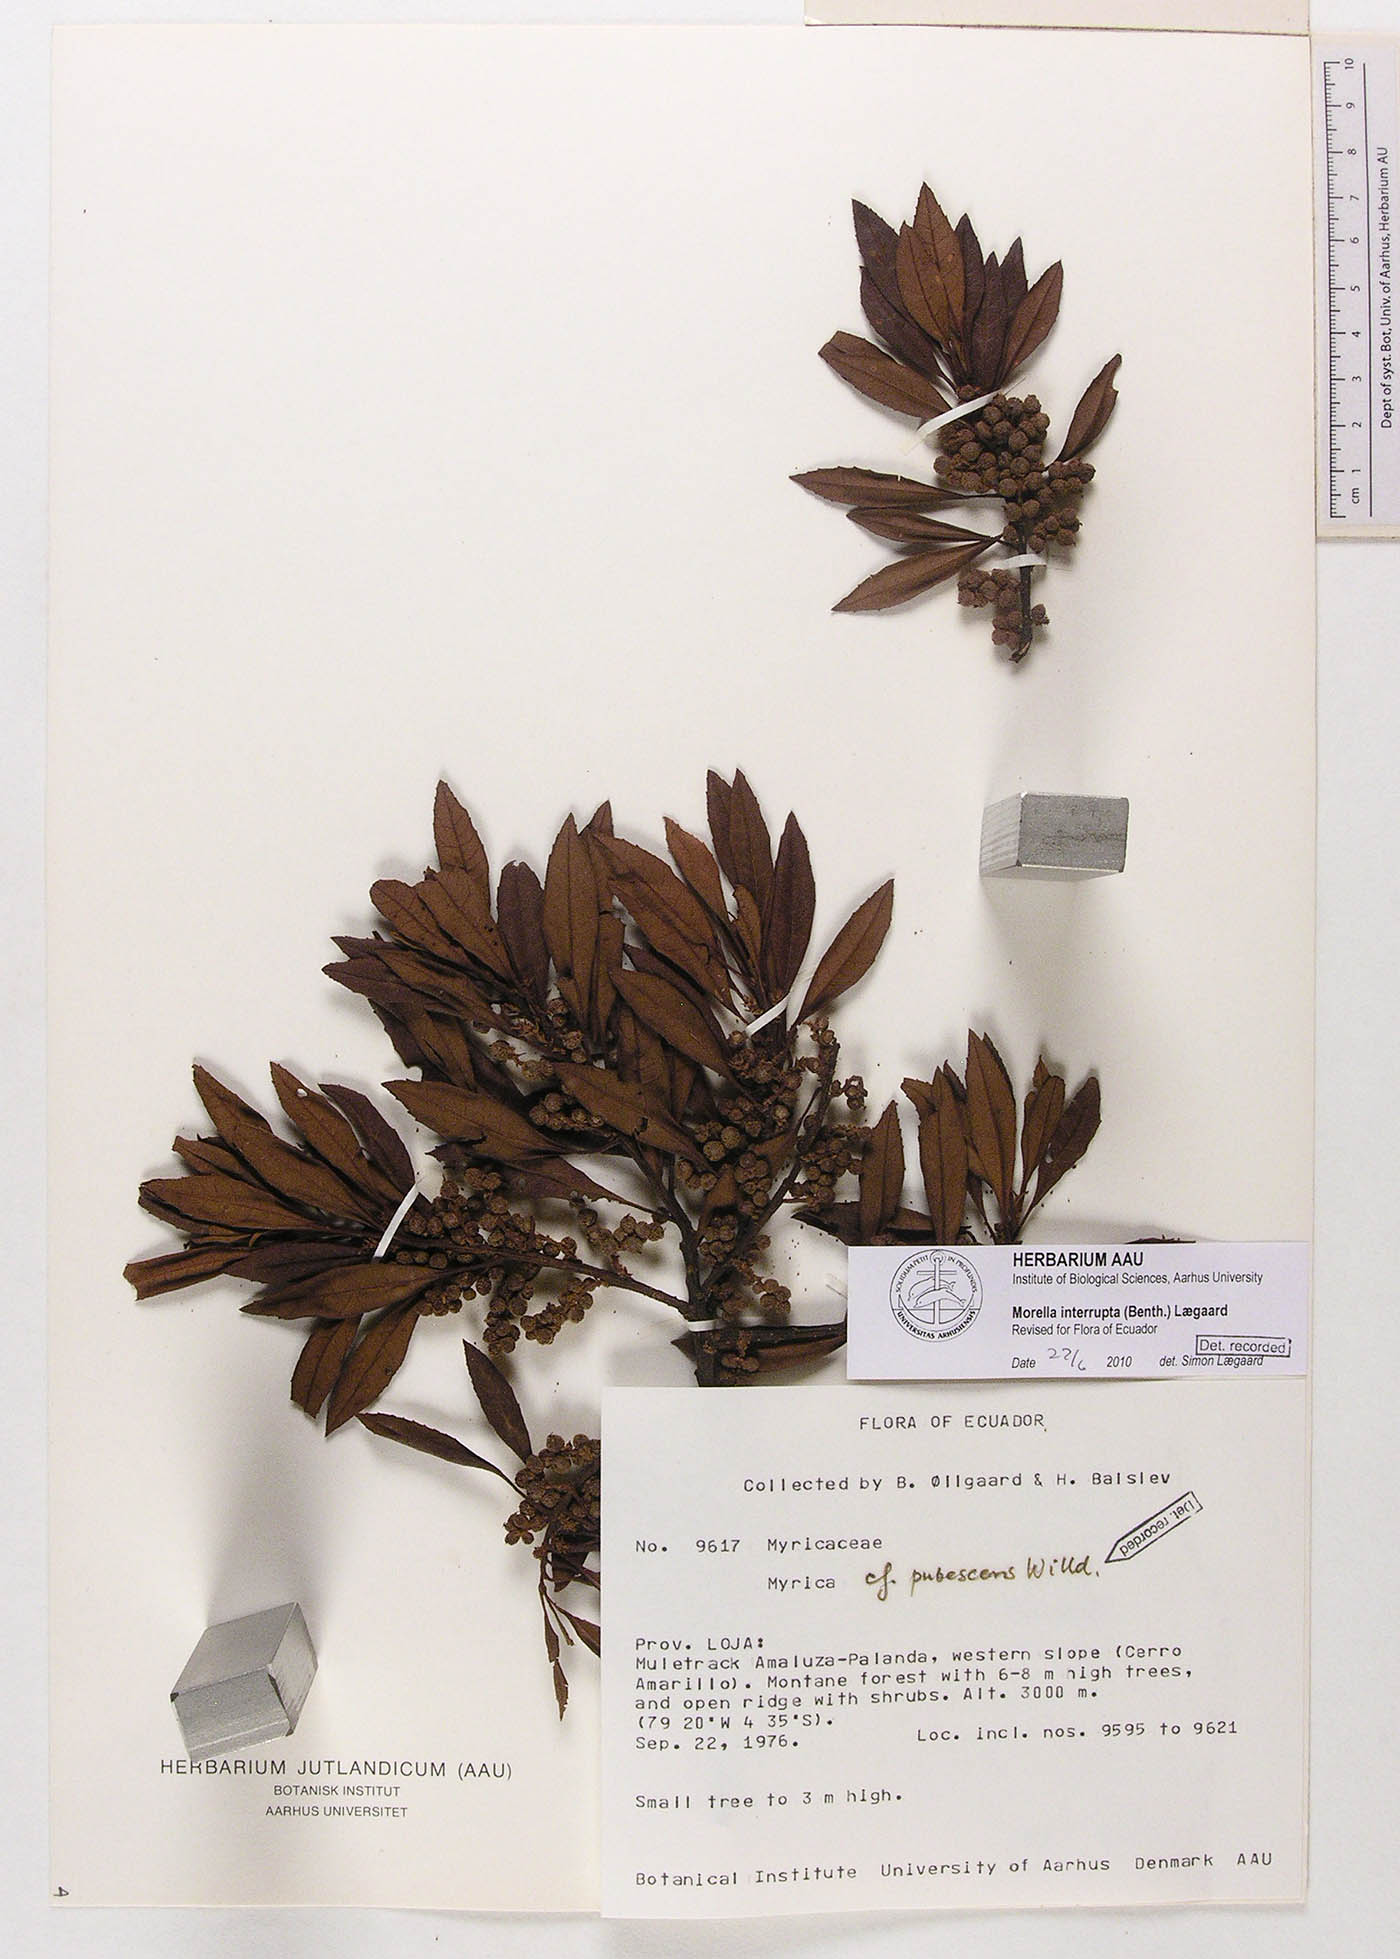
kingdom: Plantae
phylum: Tracheophyta
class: Magnoliopsida
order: Fagales
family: Myricaceae
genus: Morella
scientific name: Morella interrupta
